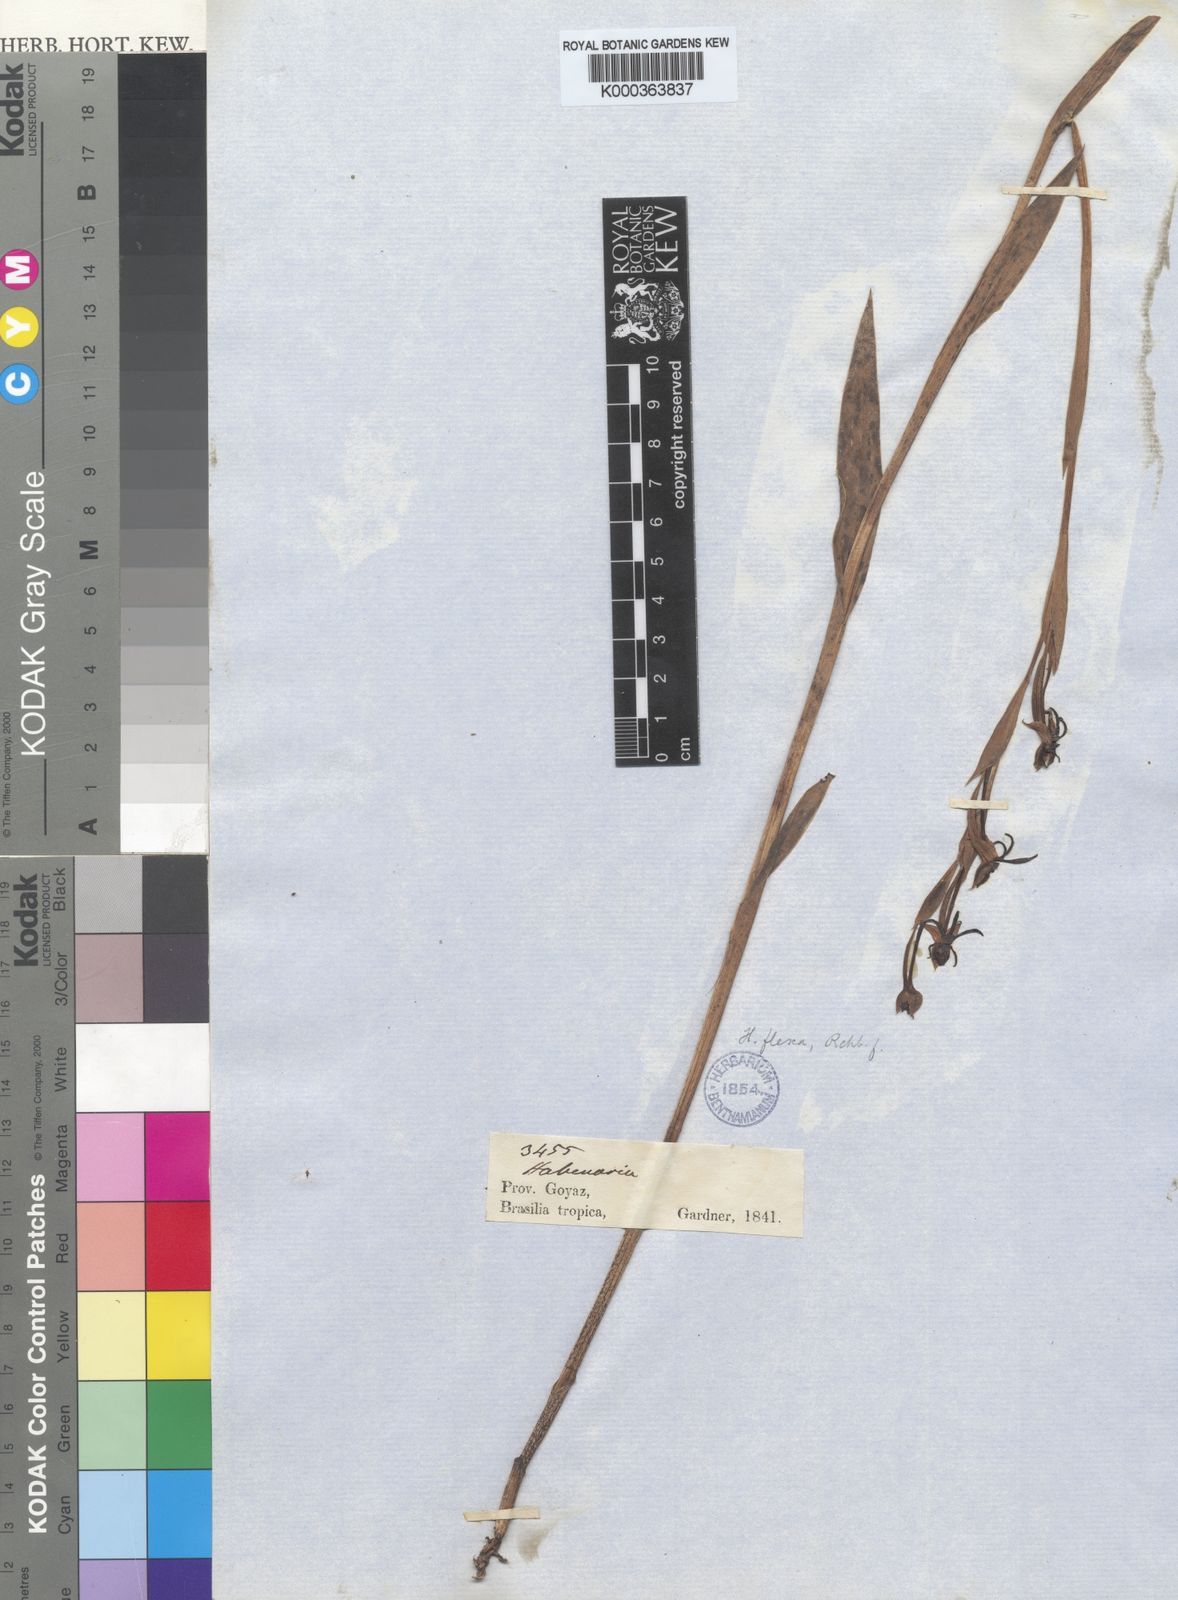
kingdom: Plantae
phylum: Tracheophyta
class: Liliopsida
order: Asparagales
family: Orchidaceae
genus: Habenaria
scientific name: Habenaria trifida
